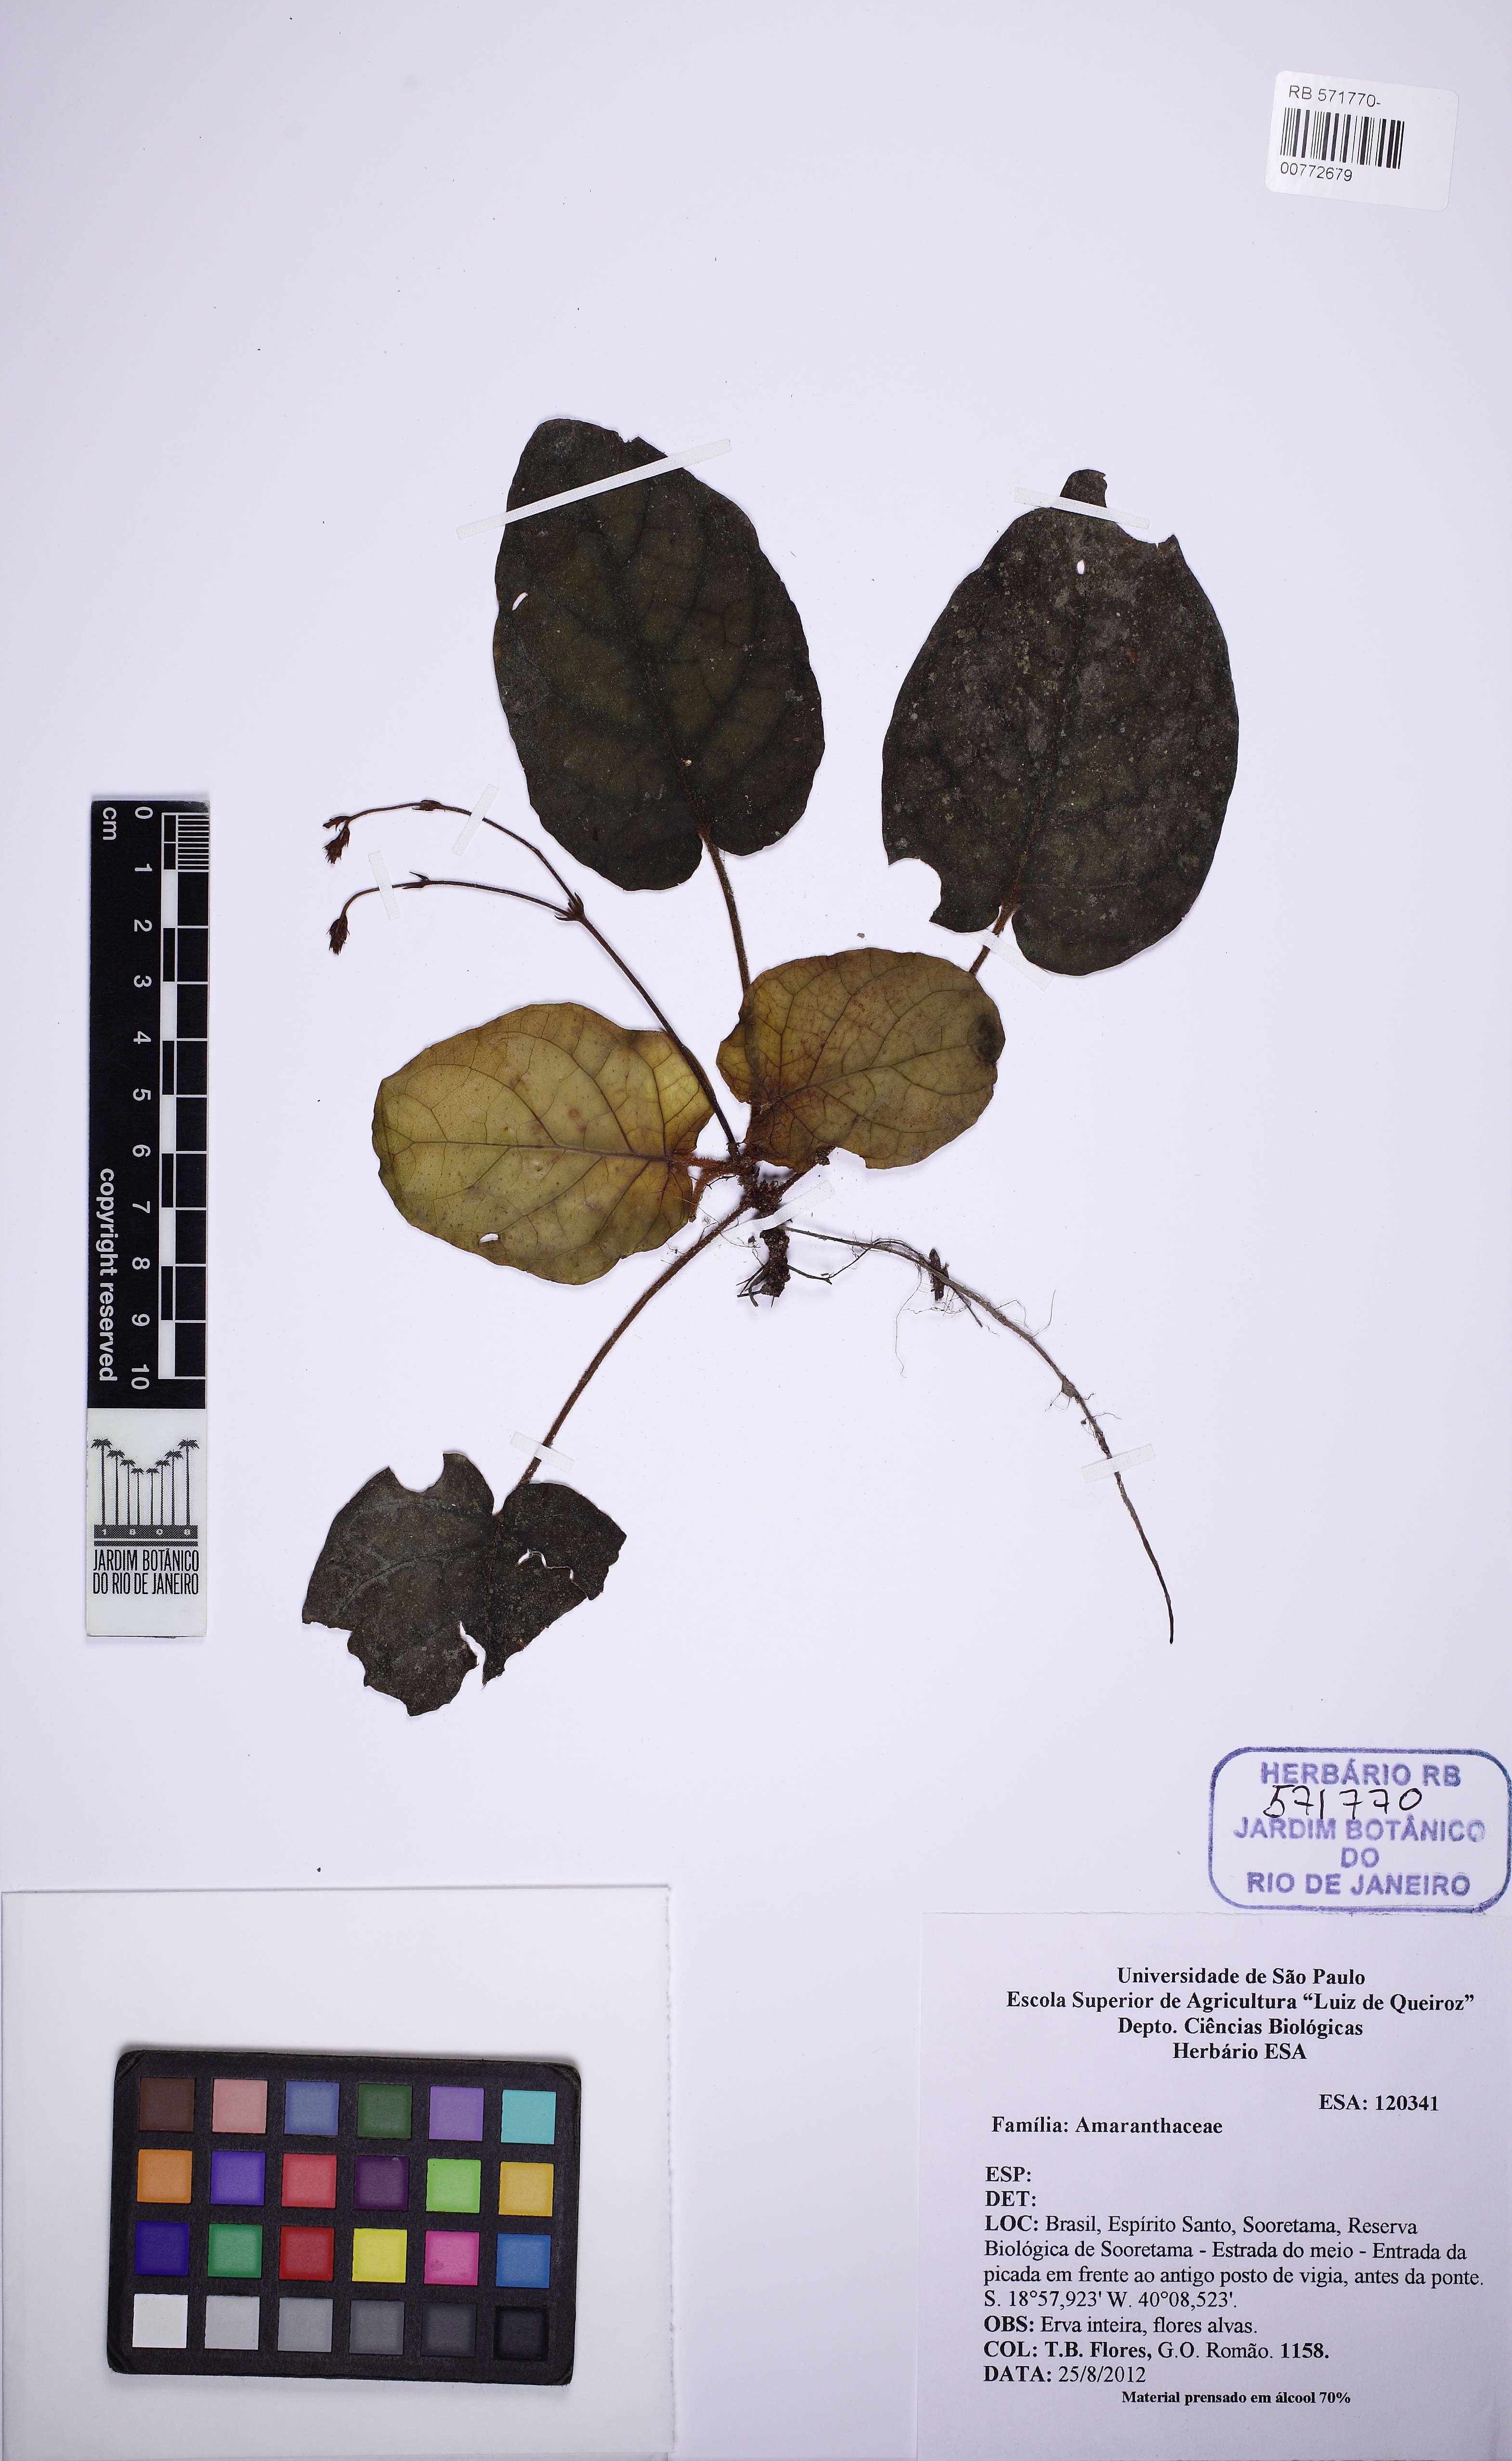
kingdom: Plantae
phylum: Tracheophyta
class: Magnoliopsida
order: Caryophyllales
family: Amaranthaceae
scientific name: Amaranthaceae
